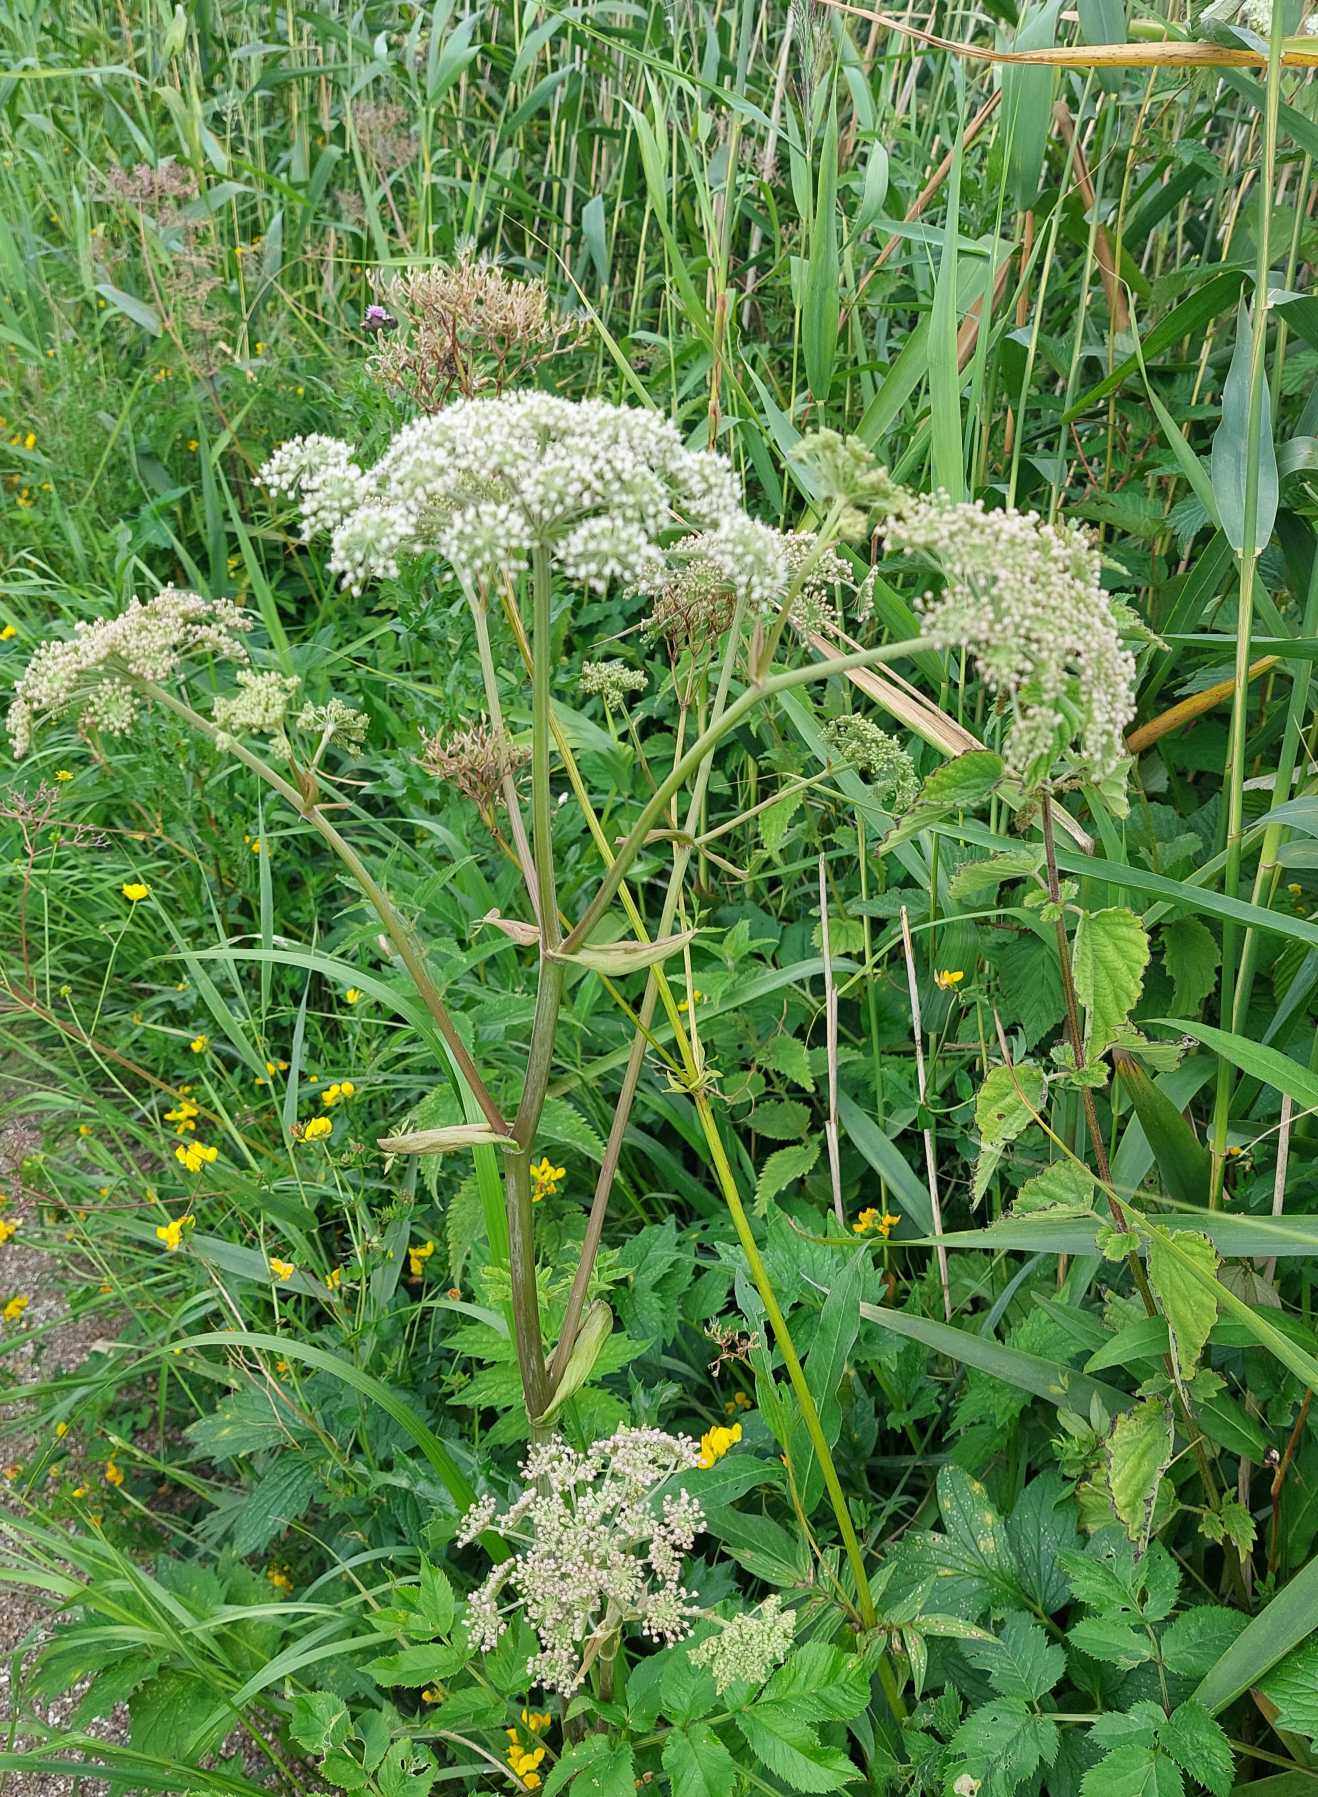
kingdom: Plantae
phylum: Tracheophyta
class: Magnoliopsida
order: Apiales
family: Apiaceae
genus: Angelica
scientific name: Angelica sylvestris
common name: Angelik
